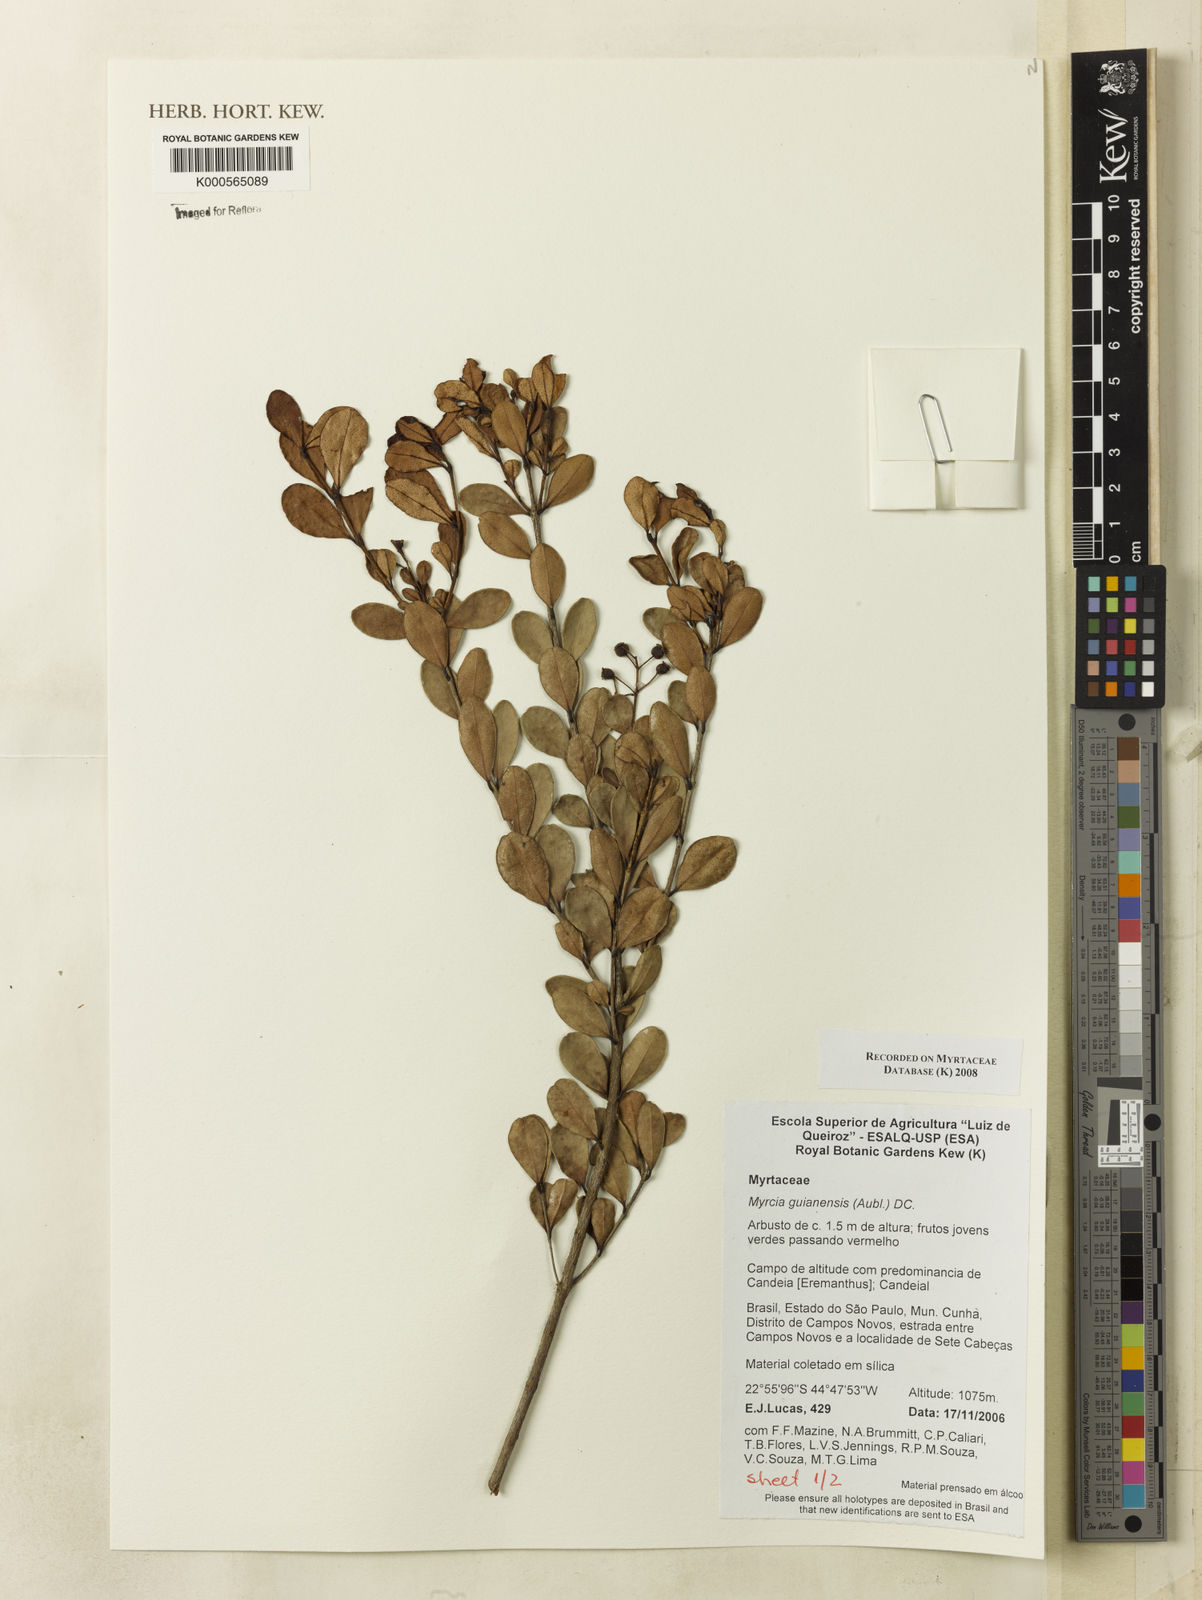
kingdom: Plantae
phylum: Tracheophyta
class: Magnoliopsida
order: Myrtales
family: Myrtaceae
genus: Myrcia
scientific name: Myrcia guianensis
